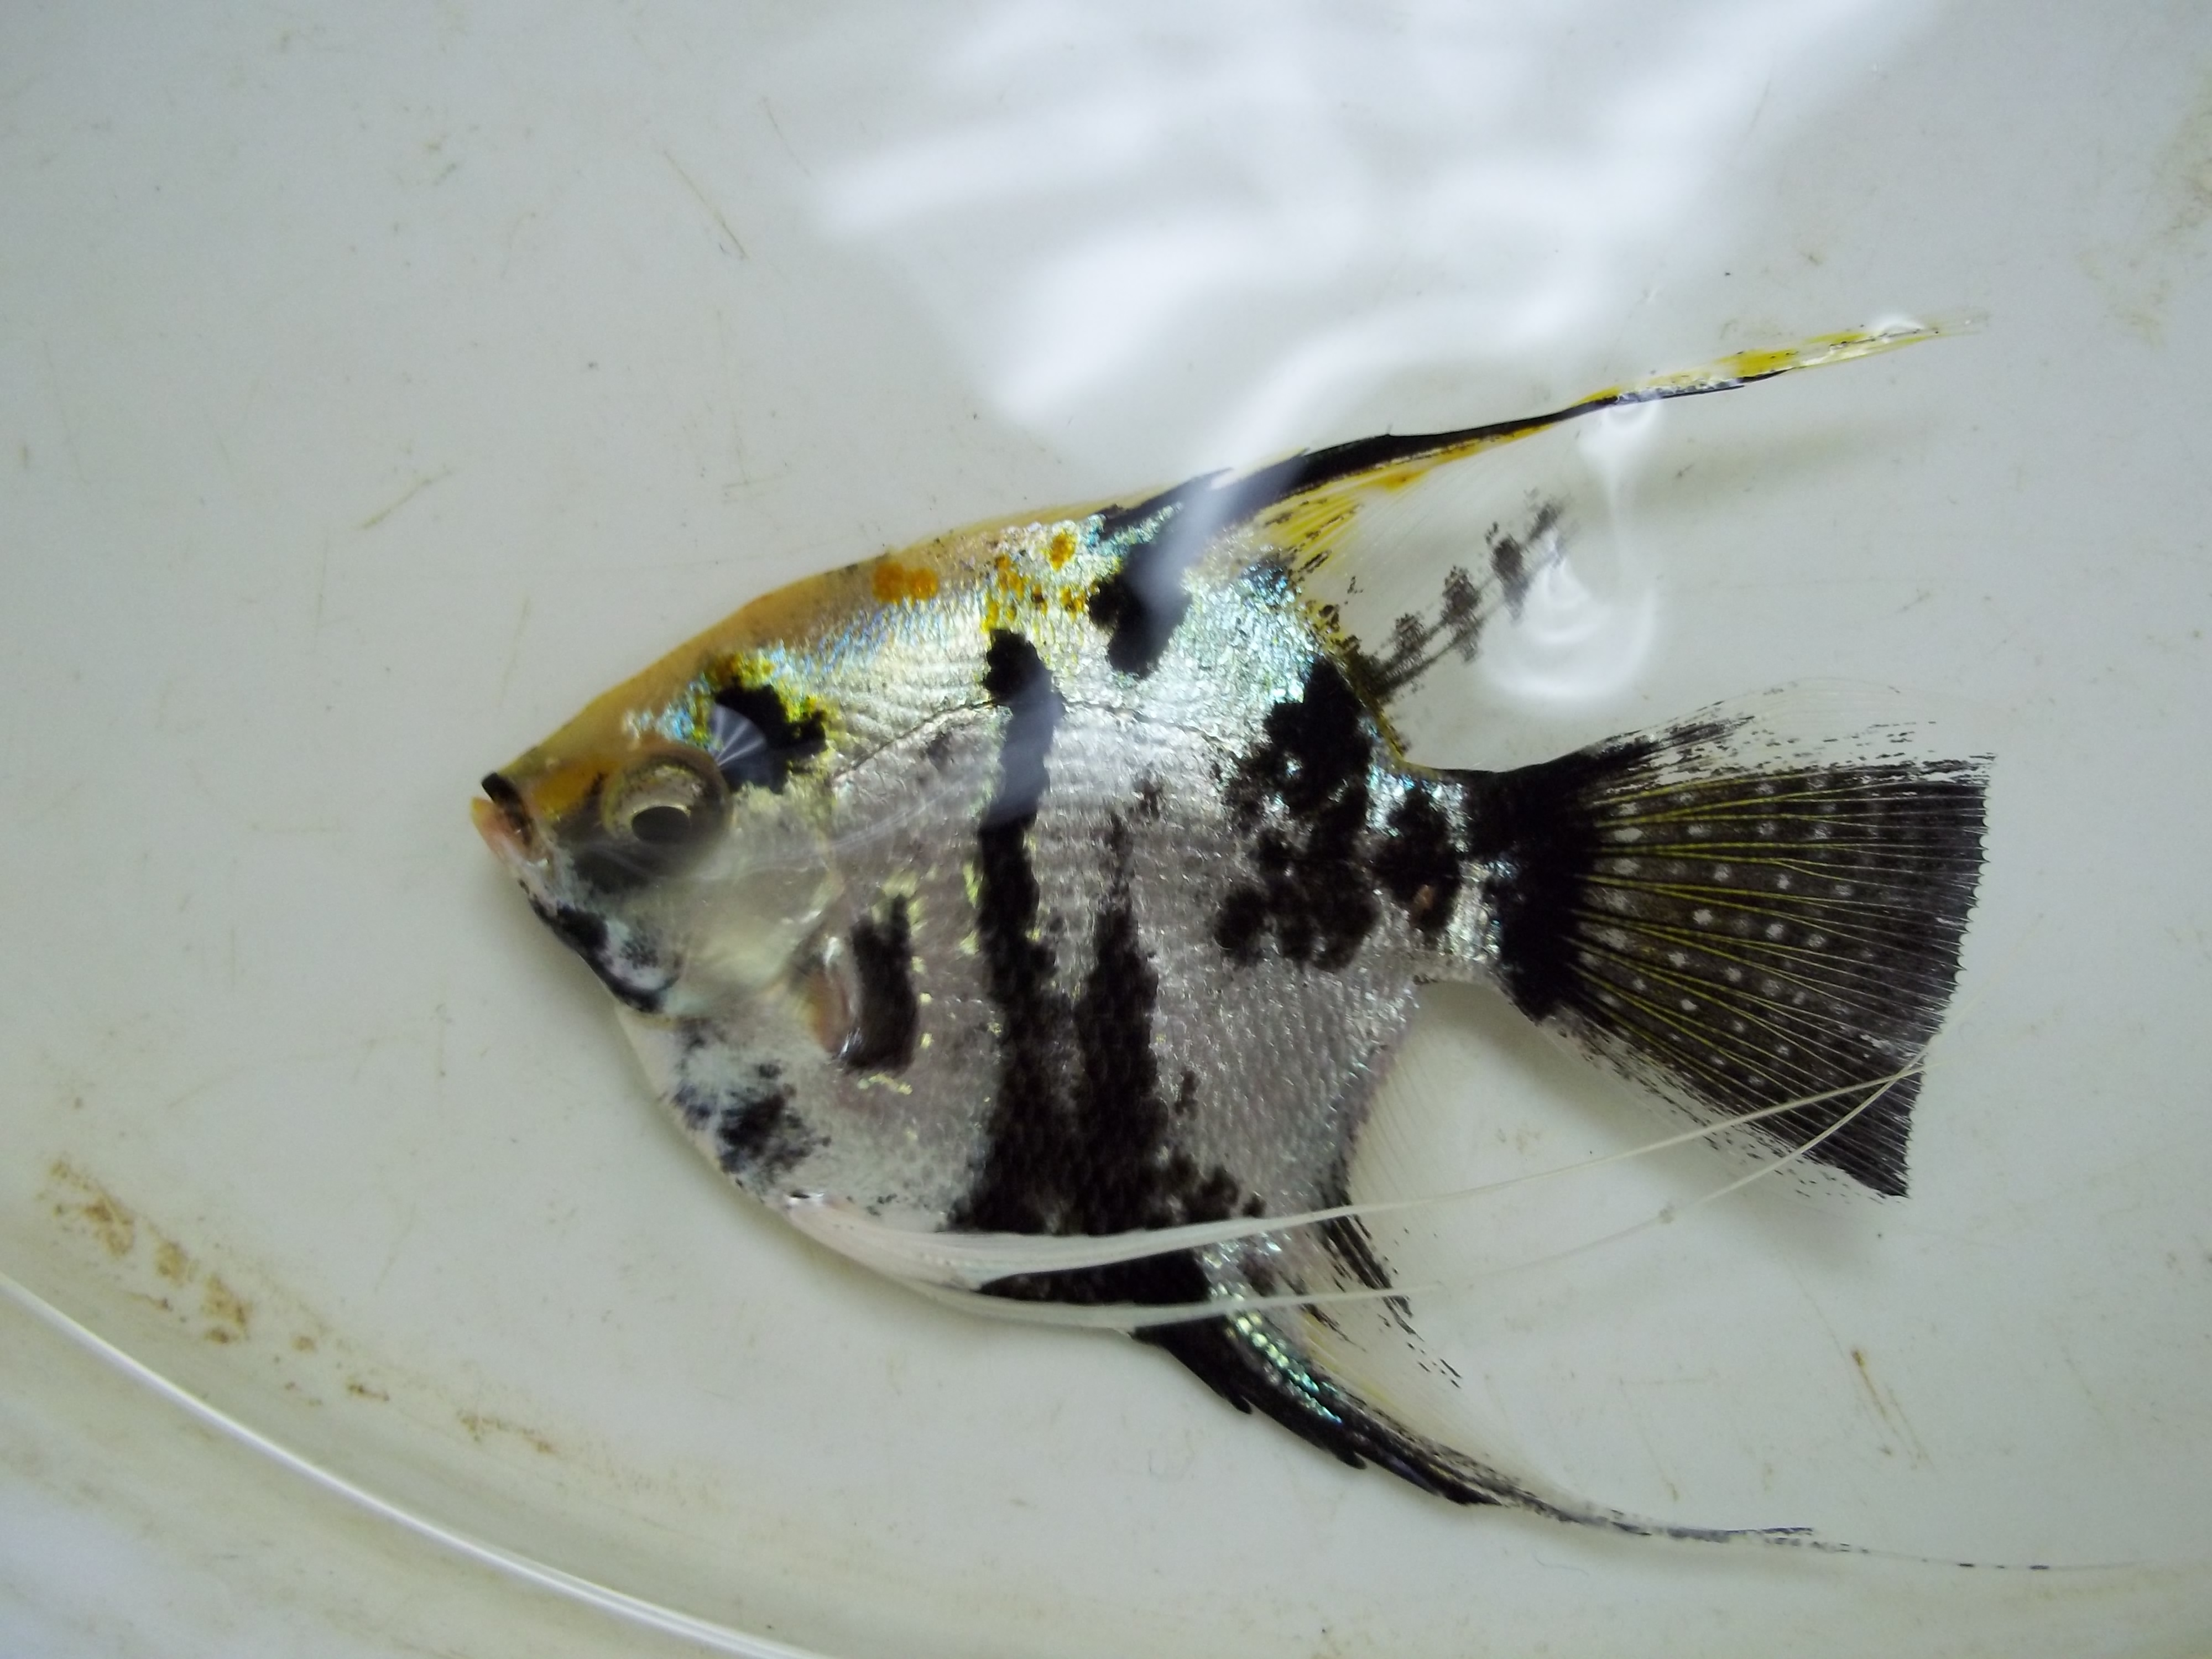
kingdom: Animalia
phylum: Chordata
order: Perciformes
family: Cichlidae
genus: Pterophyllum
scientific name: Pterophyllum scalare
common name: Angelfish
